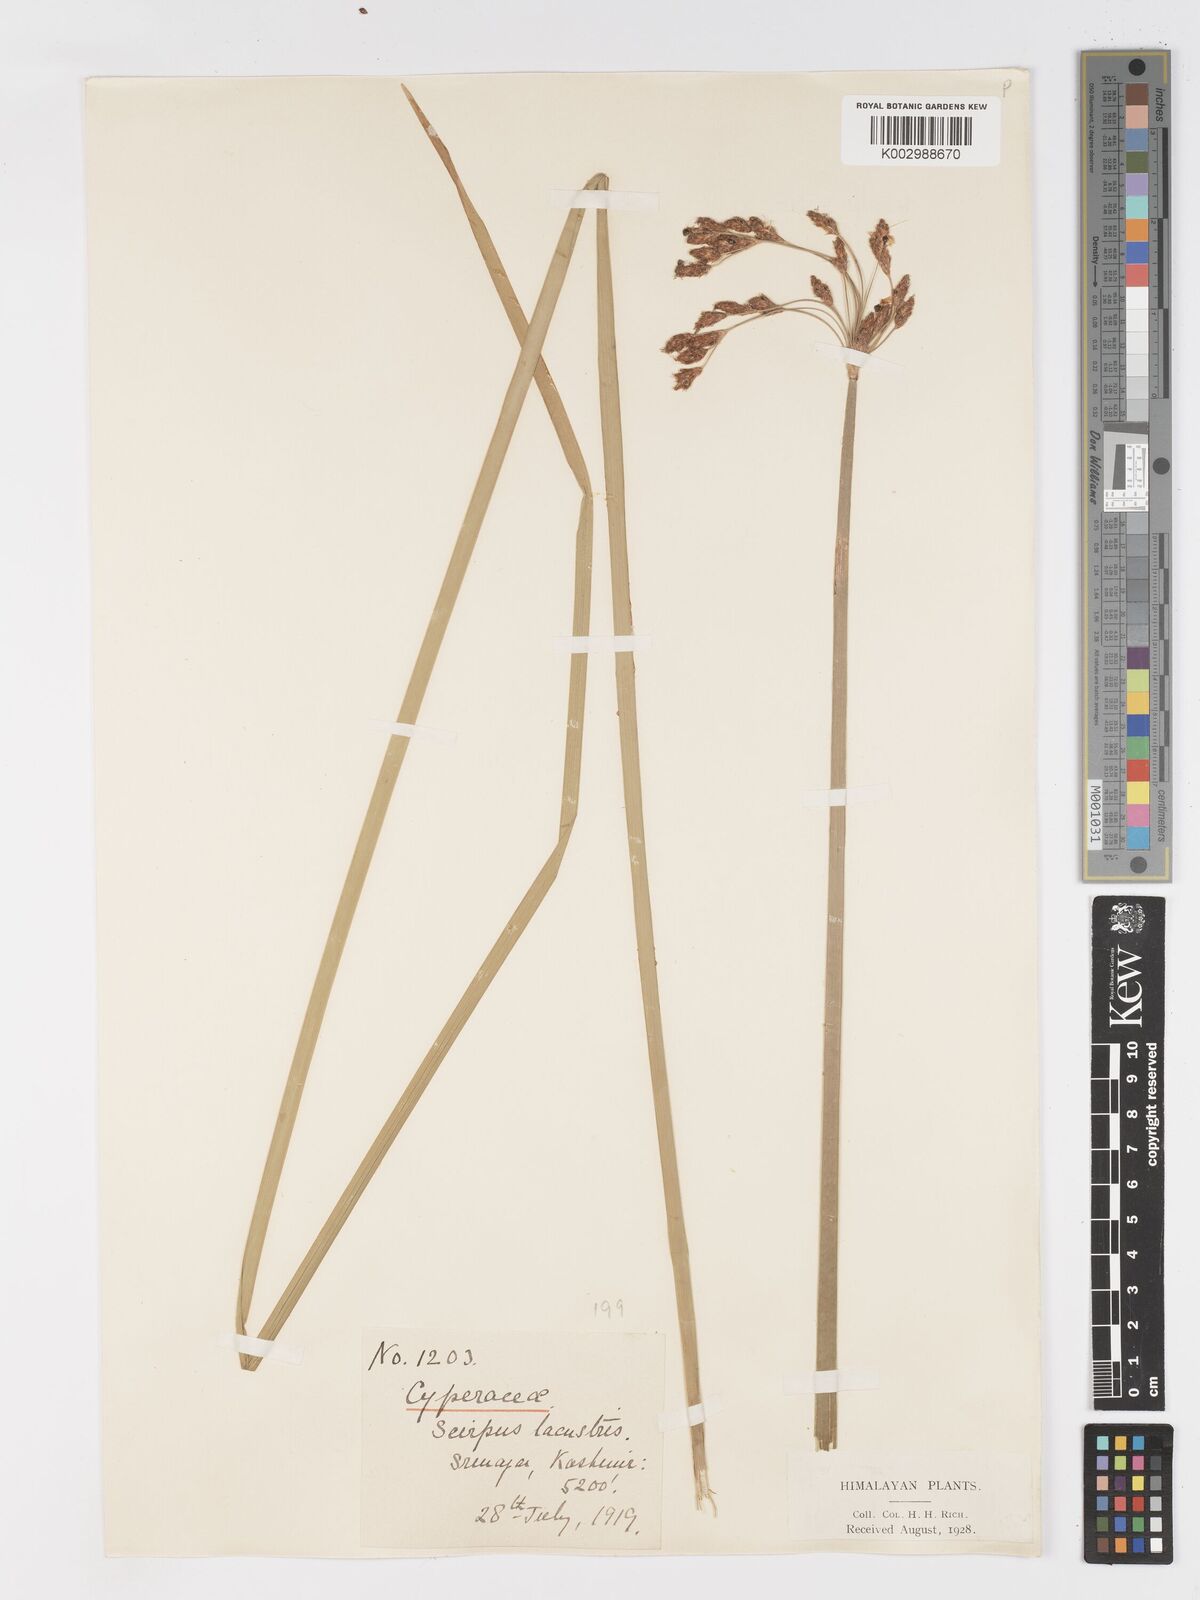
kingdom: Plantae
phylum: Tracheophyta
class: Liliopsida
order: Poales
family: Cyperaceae
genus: Schoenoplectus
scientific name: Schoenoplectus lacustris
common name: Common club-rush
